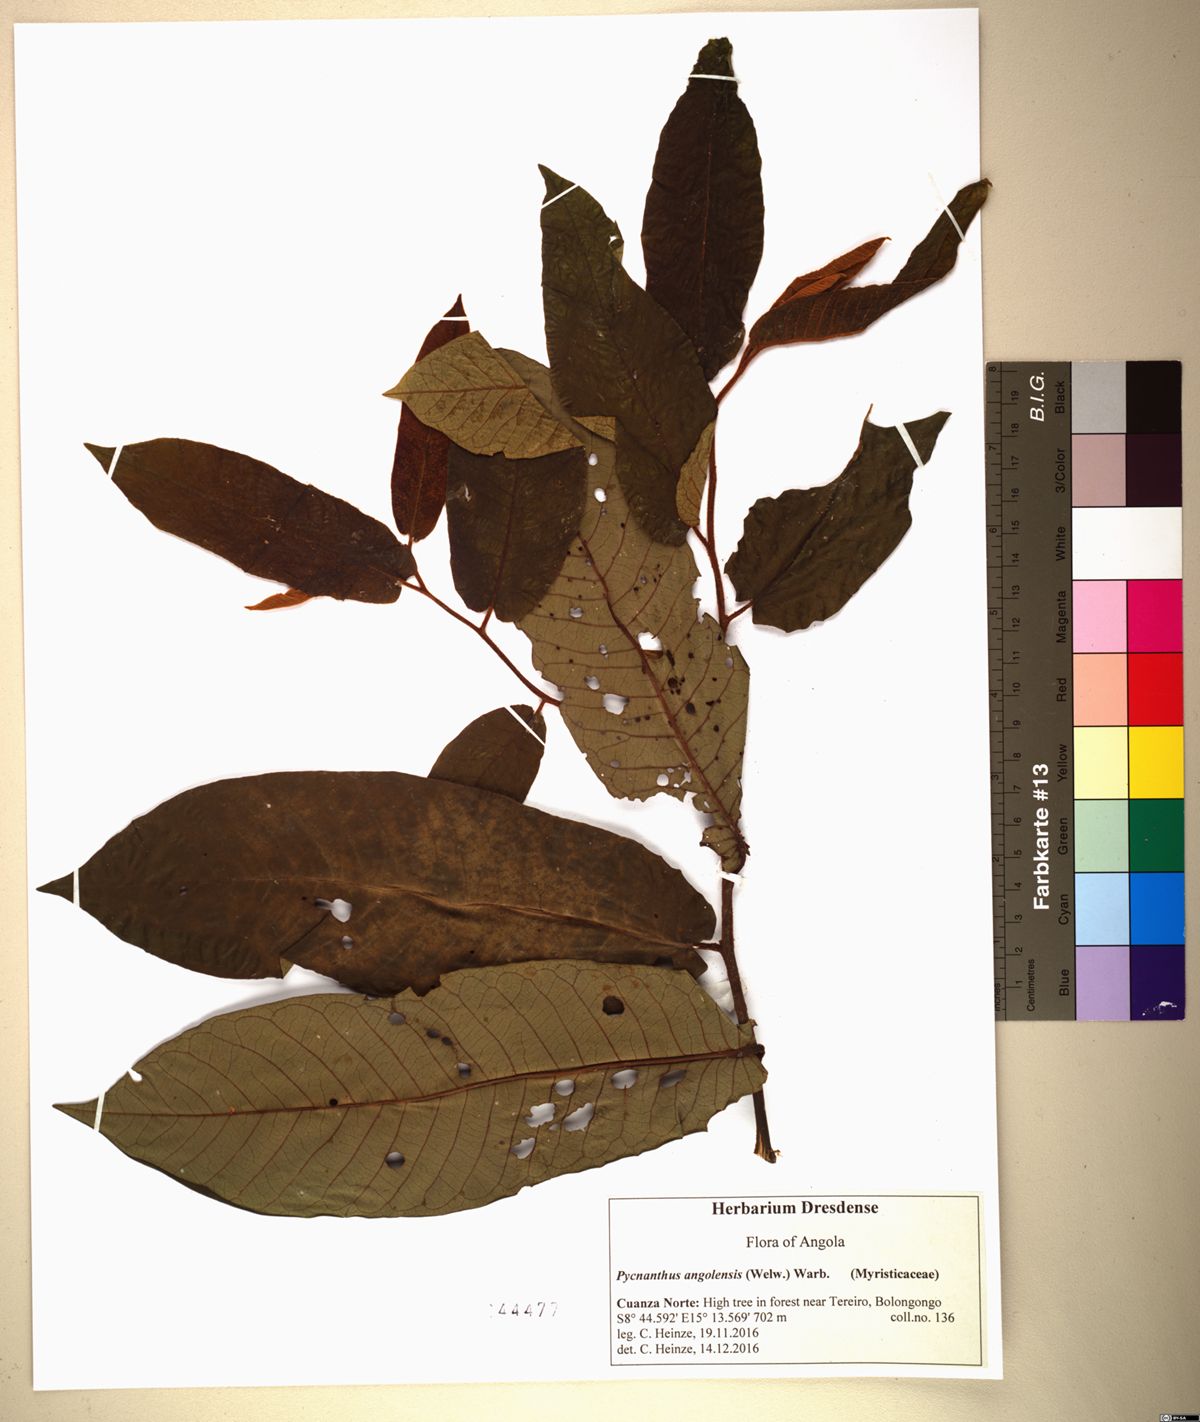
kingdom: Plantae
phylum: Tracheophyta
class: Magnoliopsida
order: Magnoliales
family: Myristicaceae
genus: Pycnanthus
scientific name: Pycnanthus angolensis
